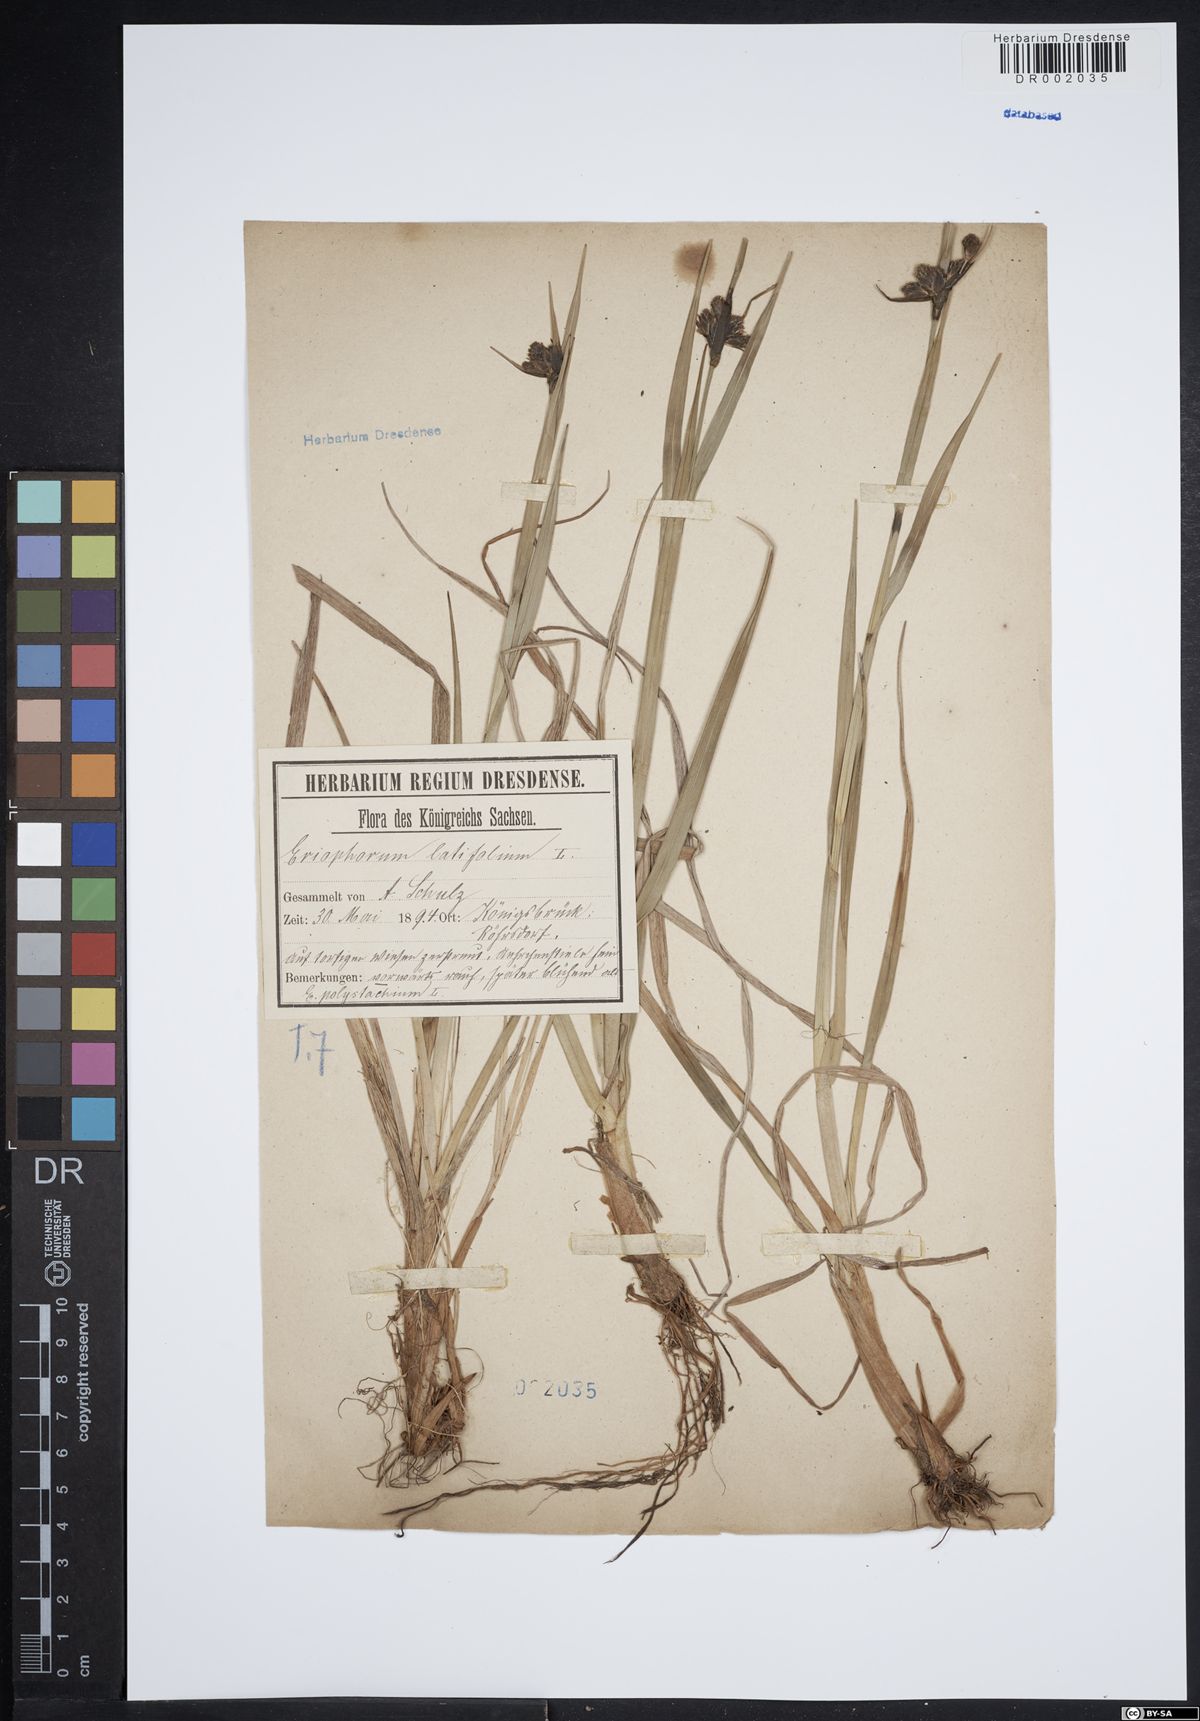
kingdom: Plantae
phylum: Tracheophyta
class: Liliopsida
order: Poales
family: Cyperaceae
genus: Eriophorum
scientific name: Eriophorum latifolium
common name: Broad-leaved cottongrass
